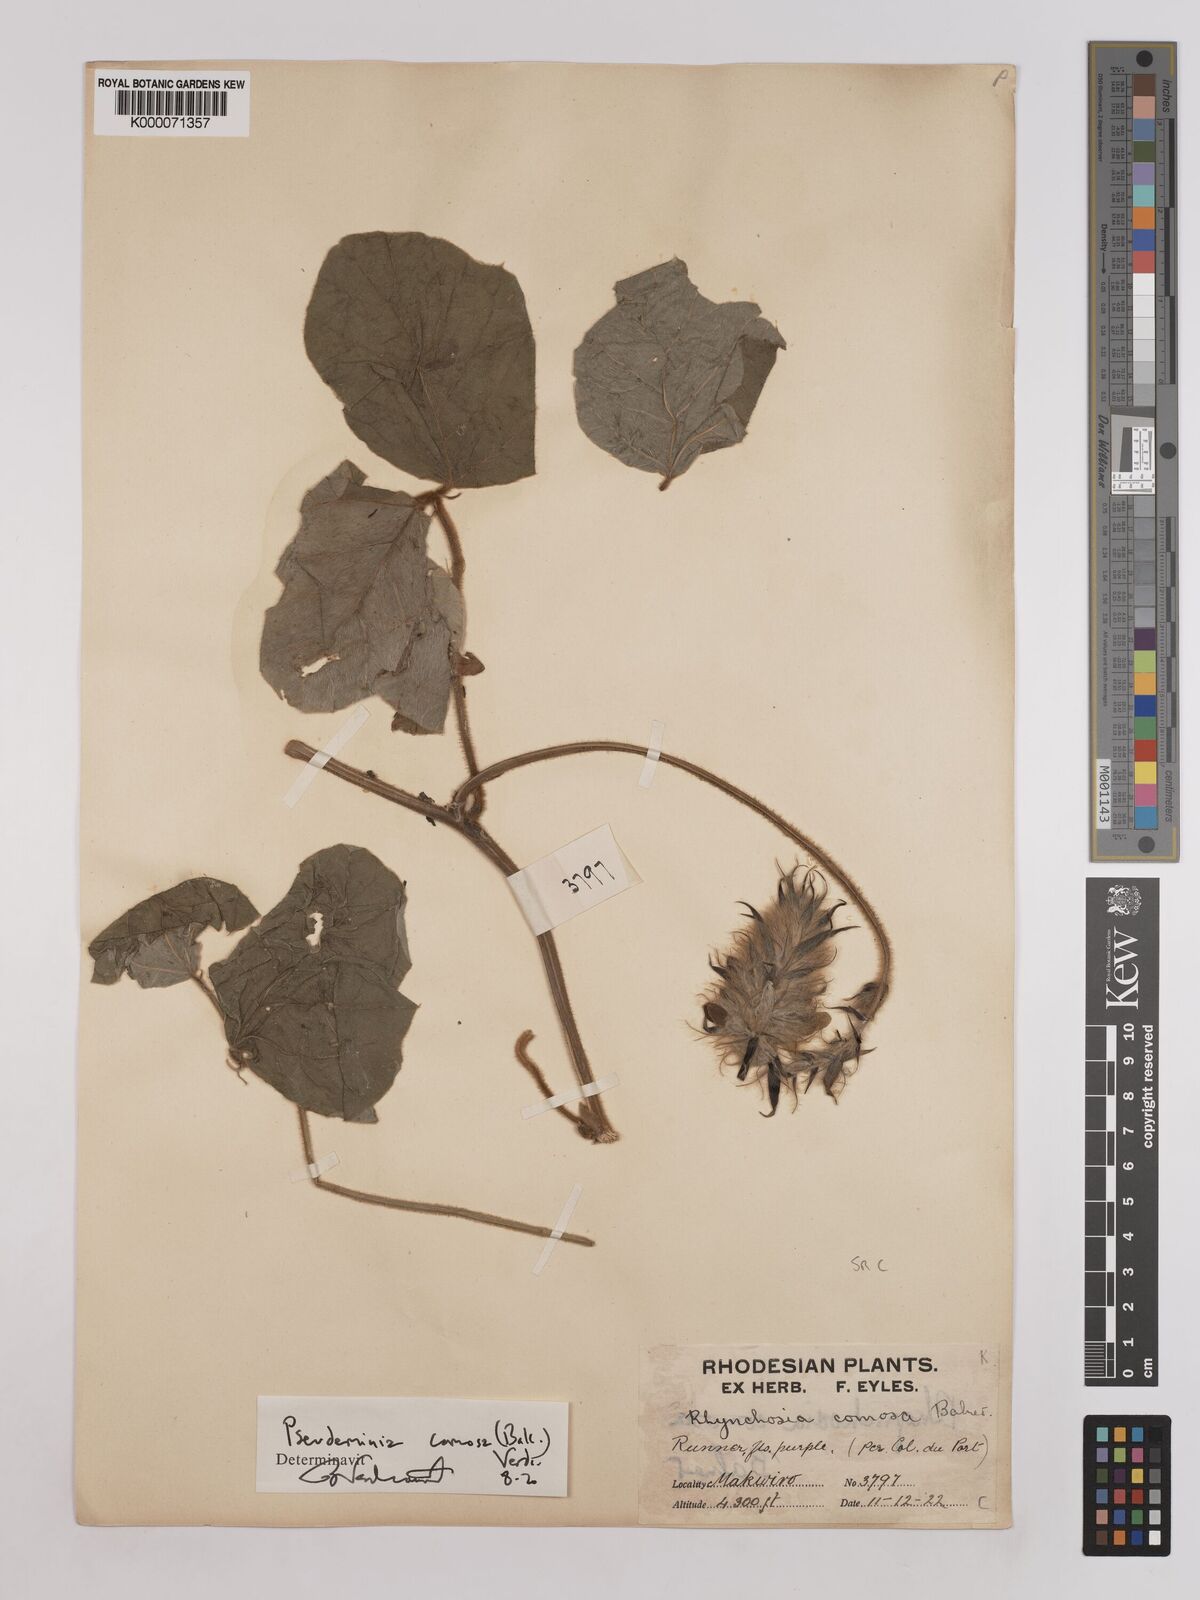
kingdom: Plantae
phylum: Tracheophyta
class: Magnoliopsida
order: Fabales
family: Fabaceae
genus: Pseudeminia
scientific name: Pseudeminia comosa
